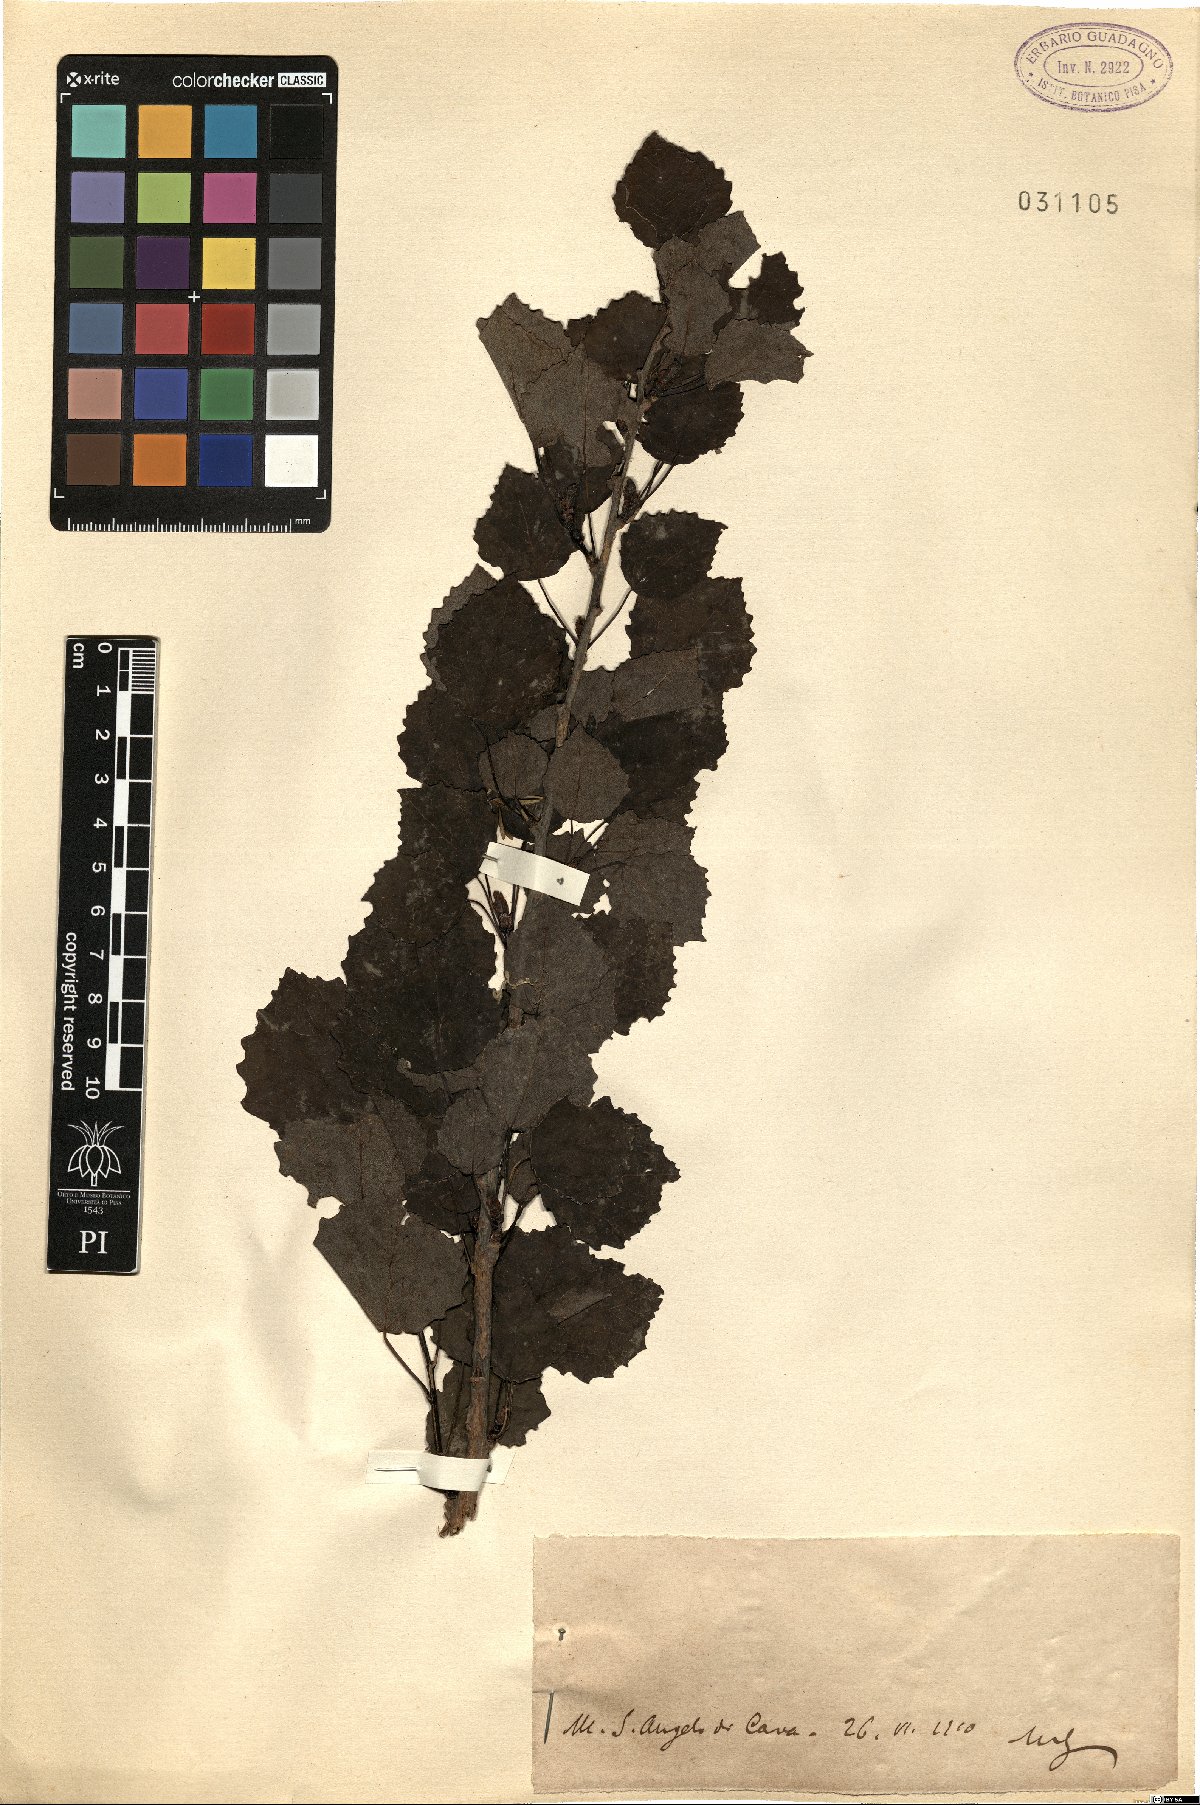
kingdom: Plantae
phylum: Tracheophyta
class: Magnoliopsida
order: Malpighiales
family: Salicaceae
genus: Populus
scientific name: Populus
